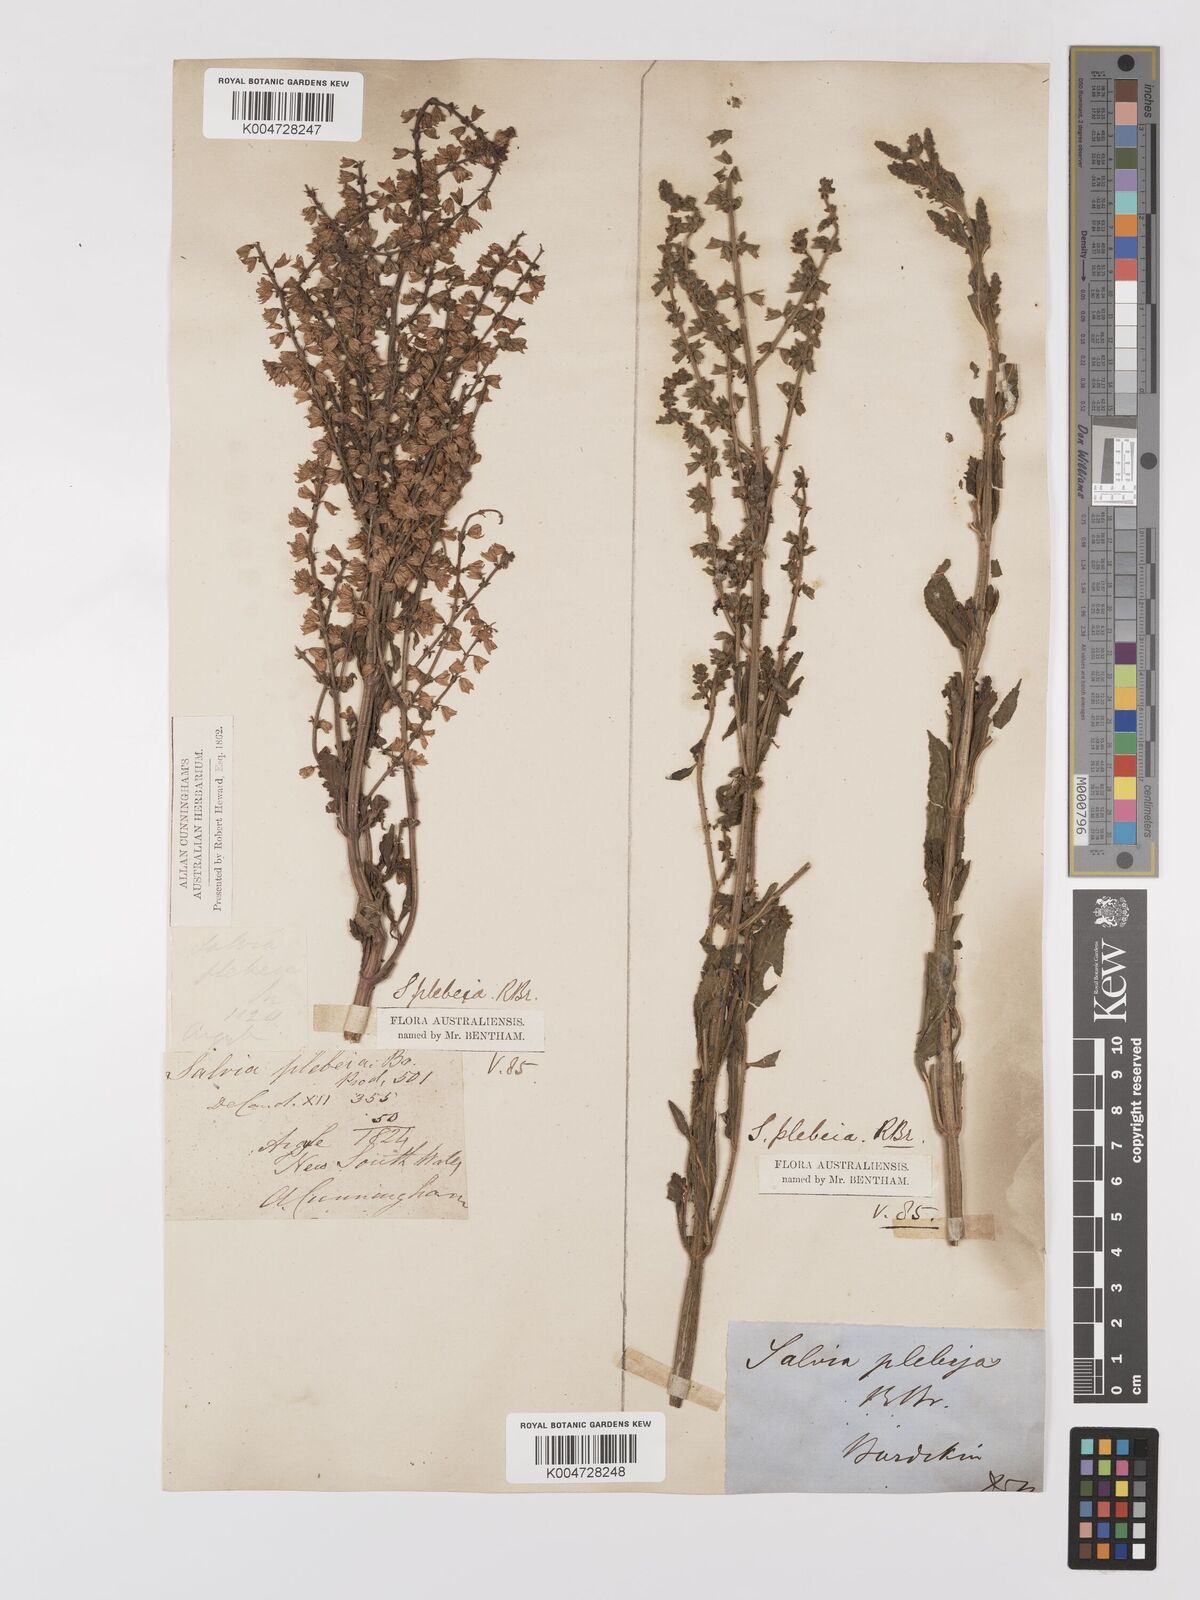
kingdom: Plantae
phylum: Tracheophyta
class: Magnoliopsida
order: Lamiales
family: Lamiaceae
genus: Salvia
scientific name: Salvia plebeia
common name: Australian sage
